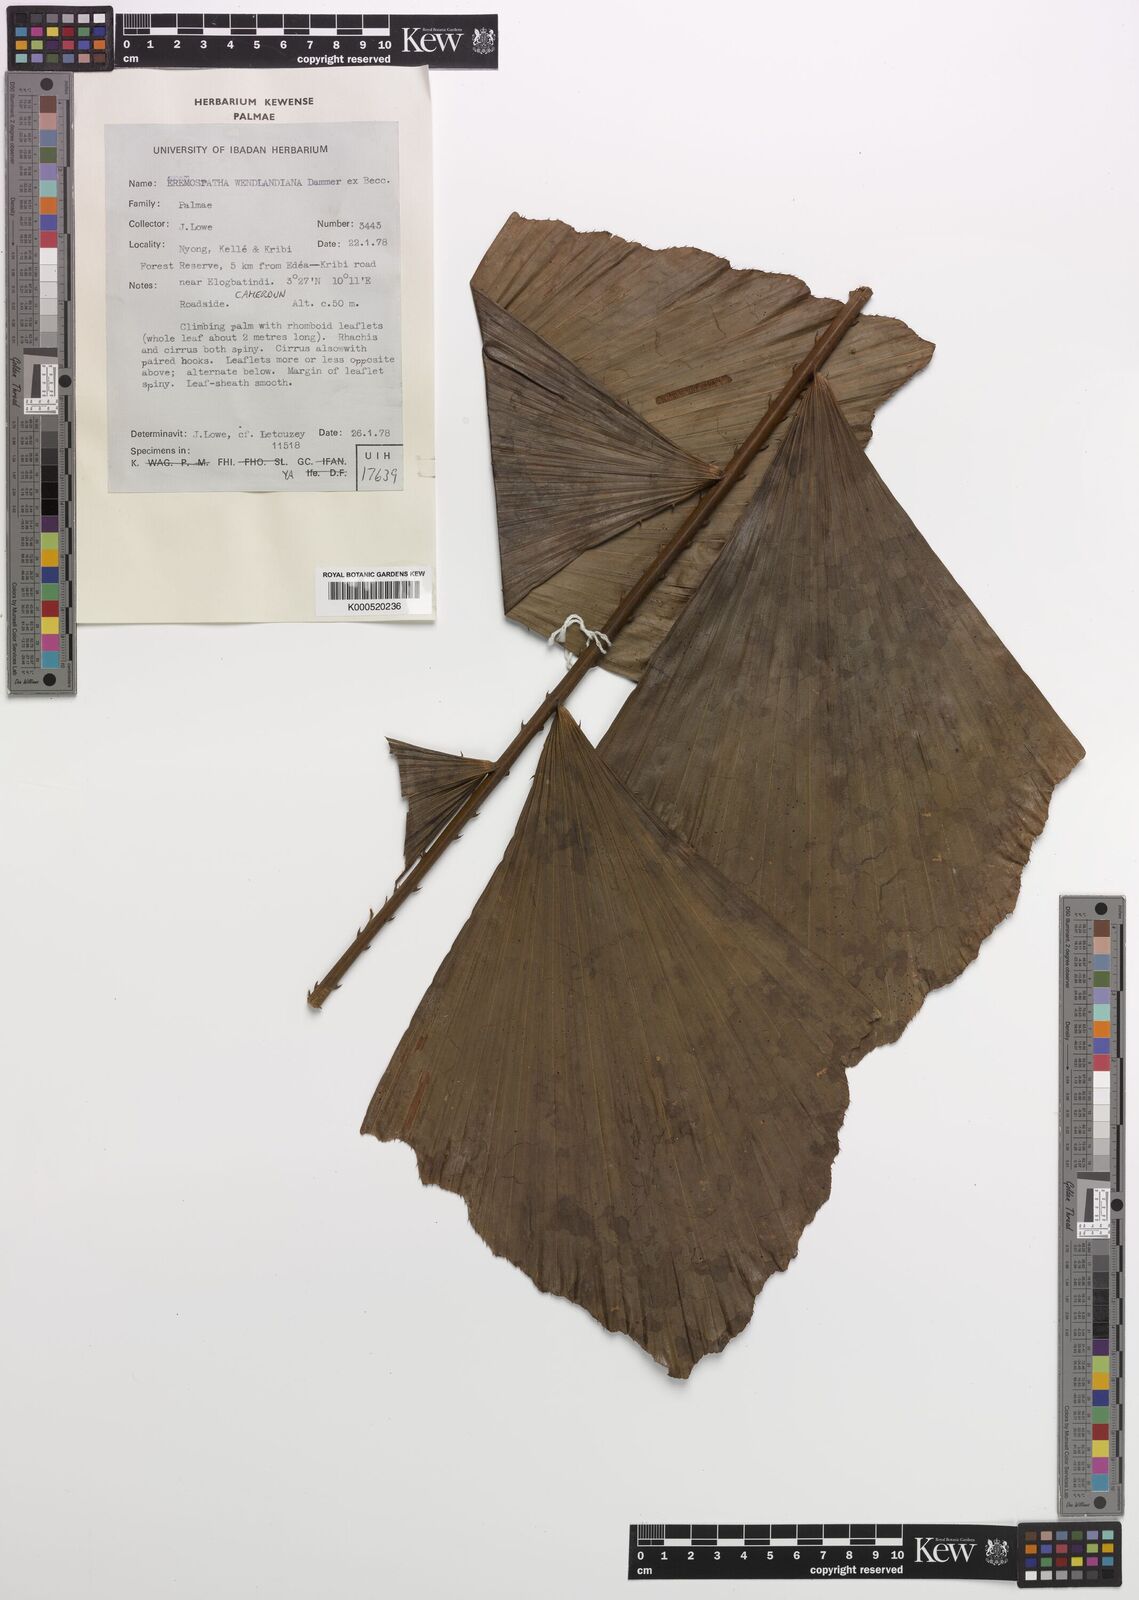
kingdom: Plantae
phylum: Tracheophyta
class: Liliopsida
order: Arecales
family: Arecaceae
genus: Eremospatha
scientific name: Eremospatha wendlandiana
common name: Rattan
